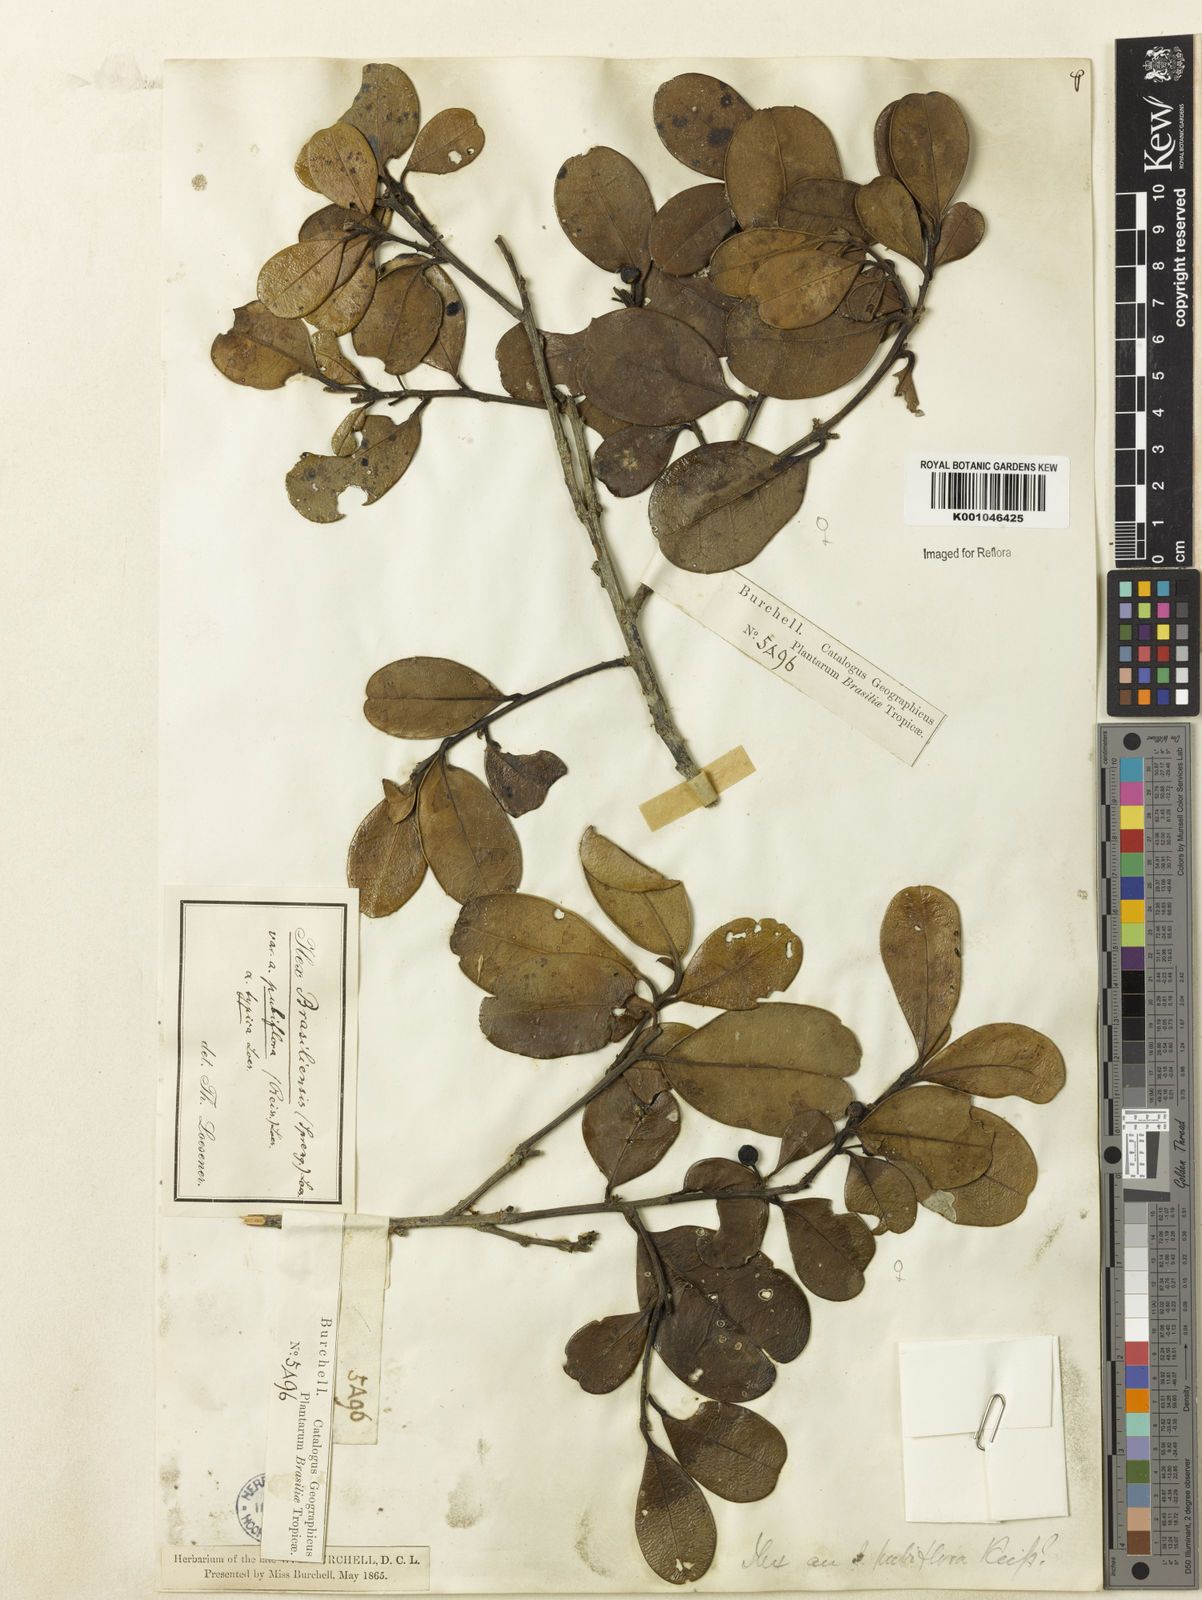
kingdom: Plantae
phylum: Tracheophyta
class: Magnoliopsida
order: Aquifoliales
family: Aquifoliaceae
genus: Ilex
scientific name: Ilex brasiliensis
